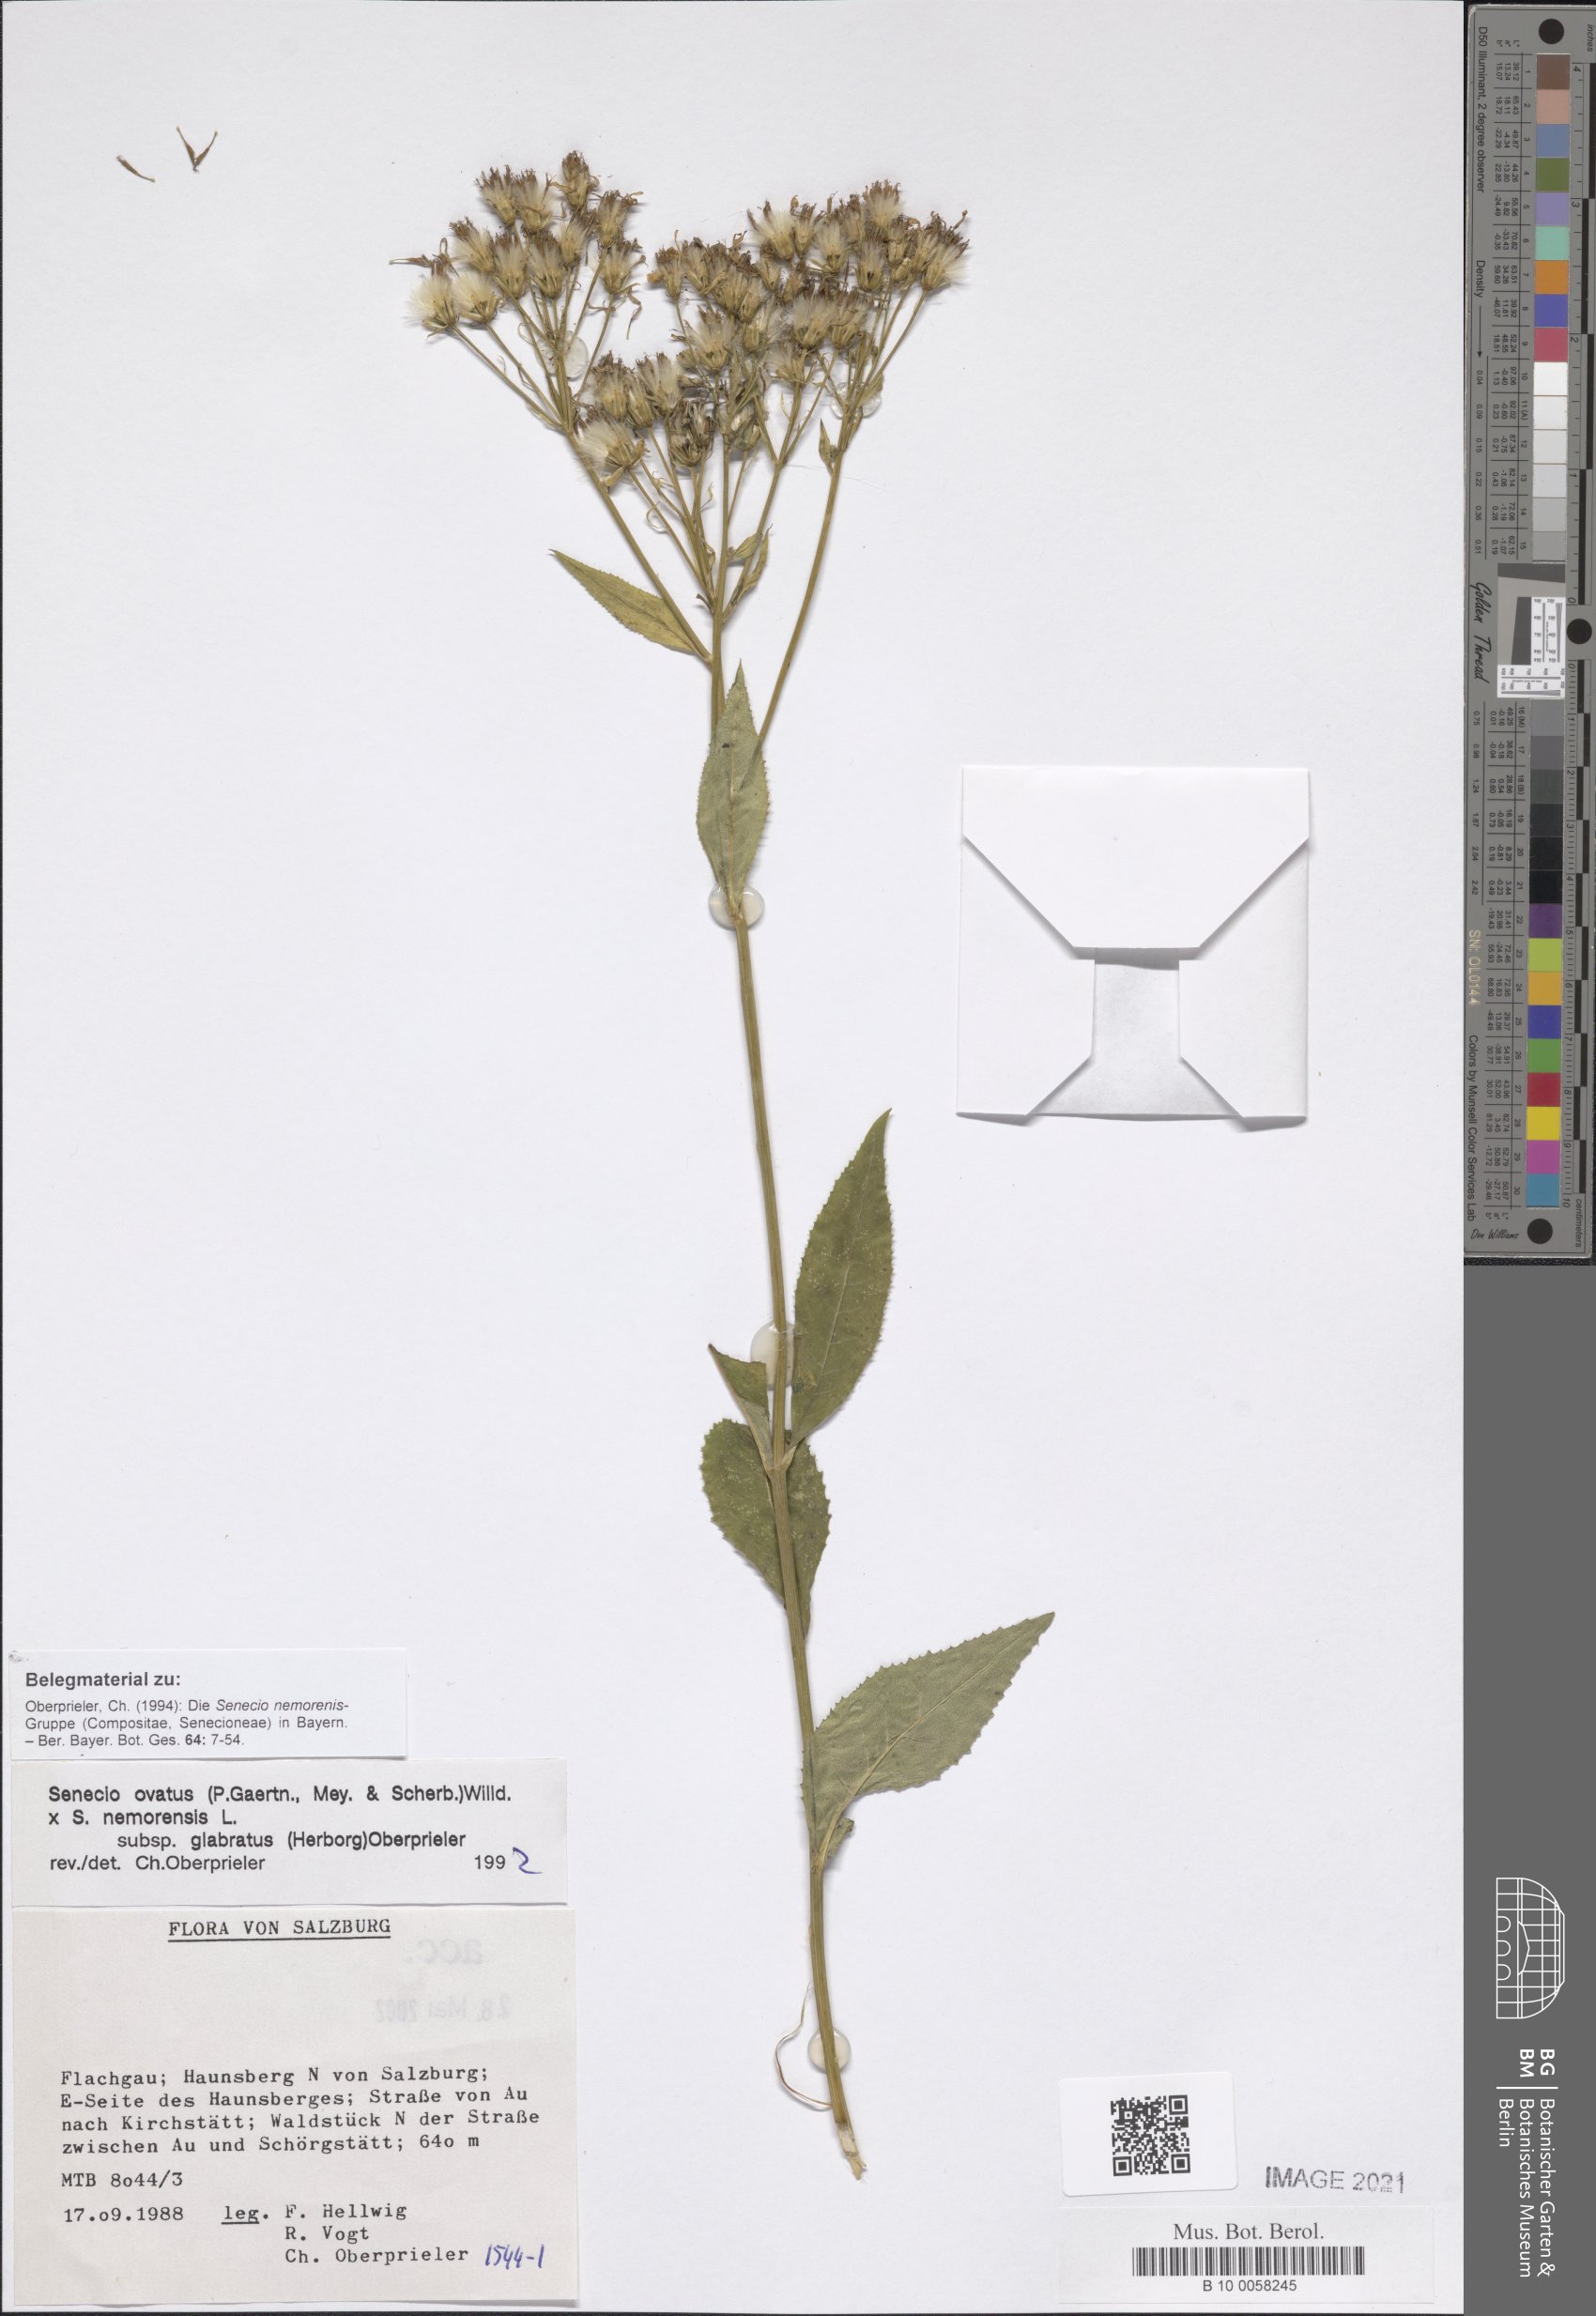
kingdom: Plantae
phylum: Tracheophyta
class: Magnoliopsida
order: Asterales
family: Asteraceae
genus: Senecio
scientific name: Senecio ovatus
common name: Wood ragwort
